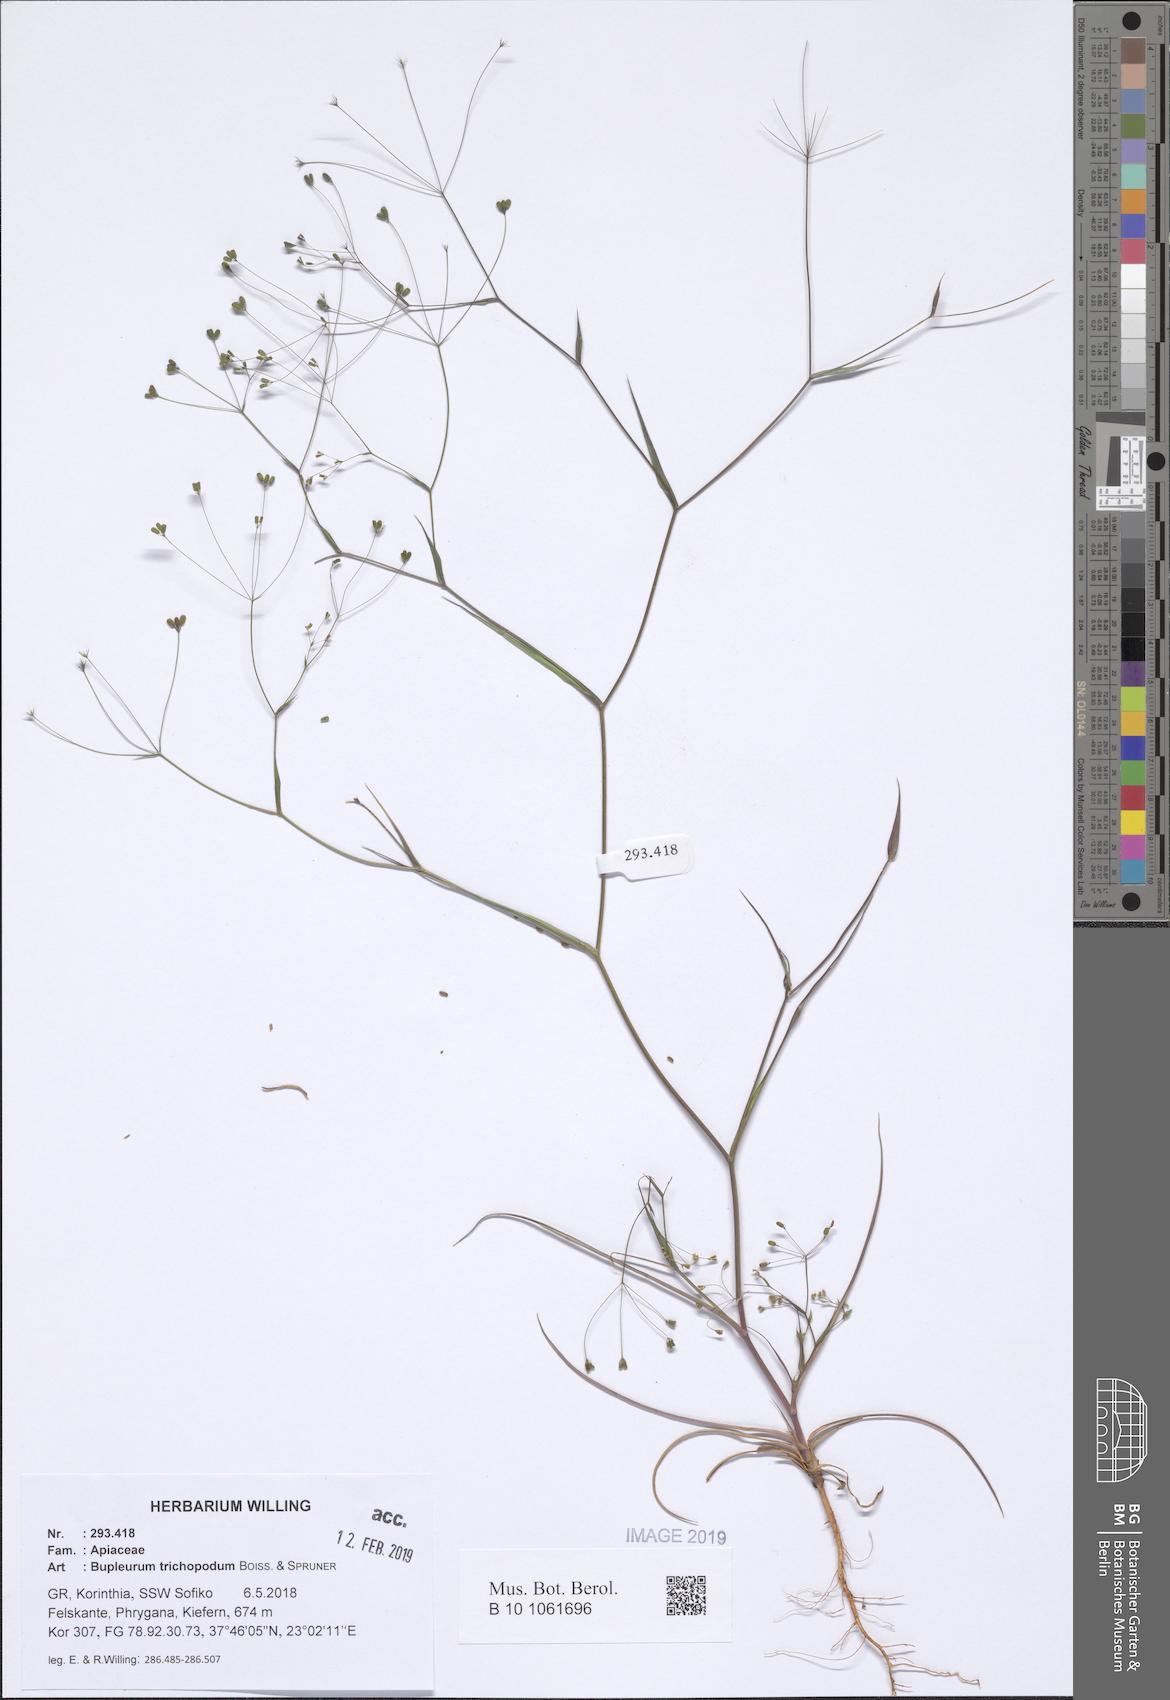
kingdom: Plantae
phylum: Tracheophyta
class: Magnoliopsida
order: Apiales
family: Apiaceae
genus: Bupleurum
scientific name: Bupleurum trichopodum
